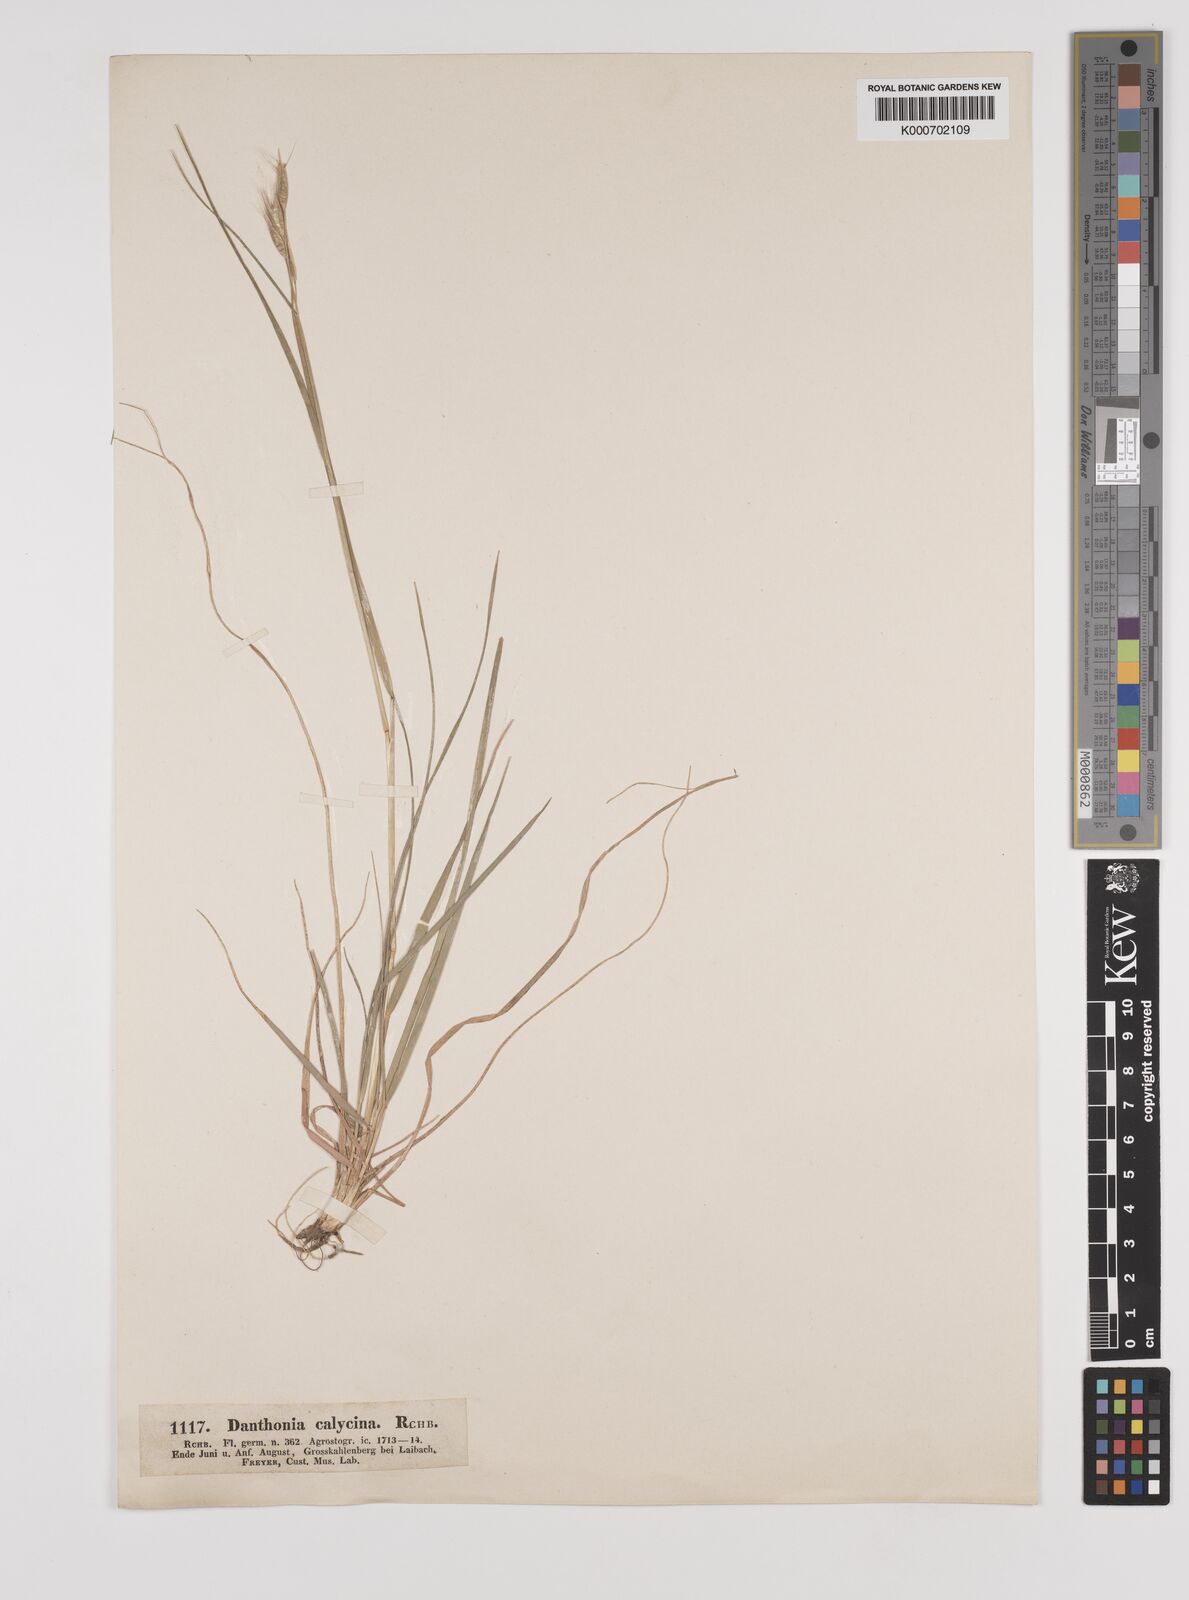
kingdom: Plantae
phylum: Tracheophyta
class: Liliopsida
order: Poales
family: Poaceae
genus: Danthonia
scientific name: Danthonia alpina
